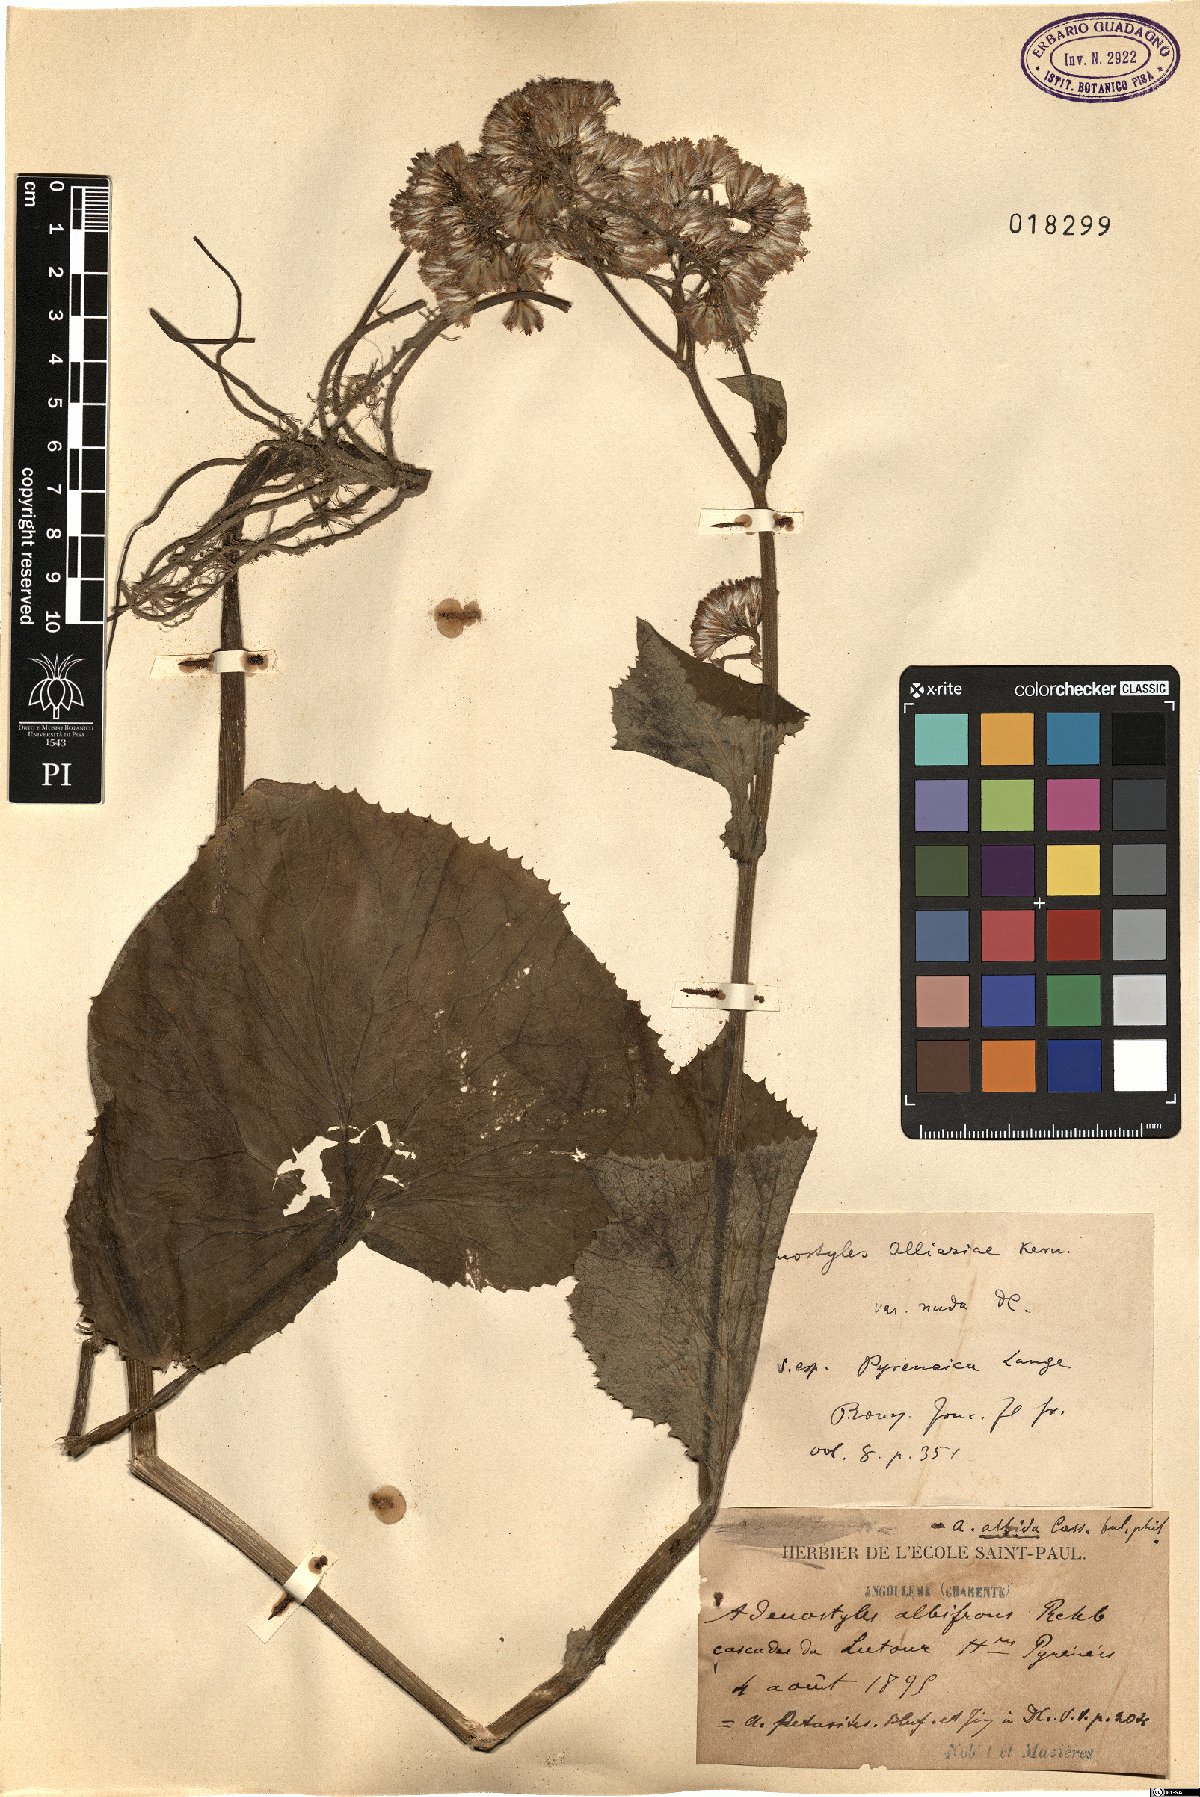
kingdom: Plantae
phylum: Tracheophyta
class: Magnoliopsida
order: Asterales
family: Asteraceae
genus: Adenostyles
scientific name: Adenostyles alliariae
